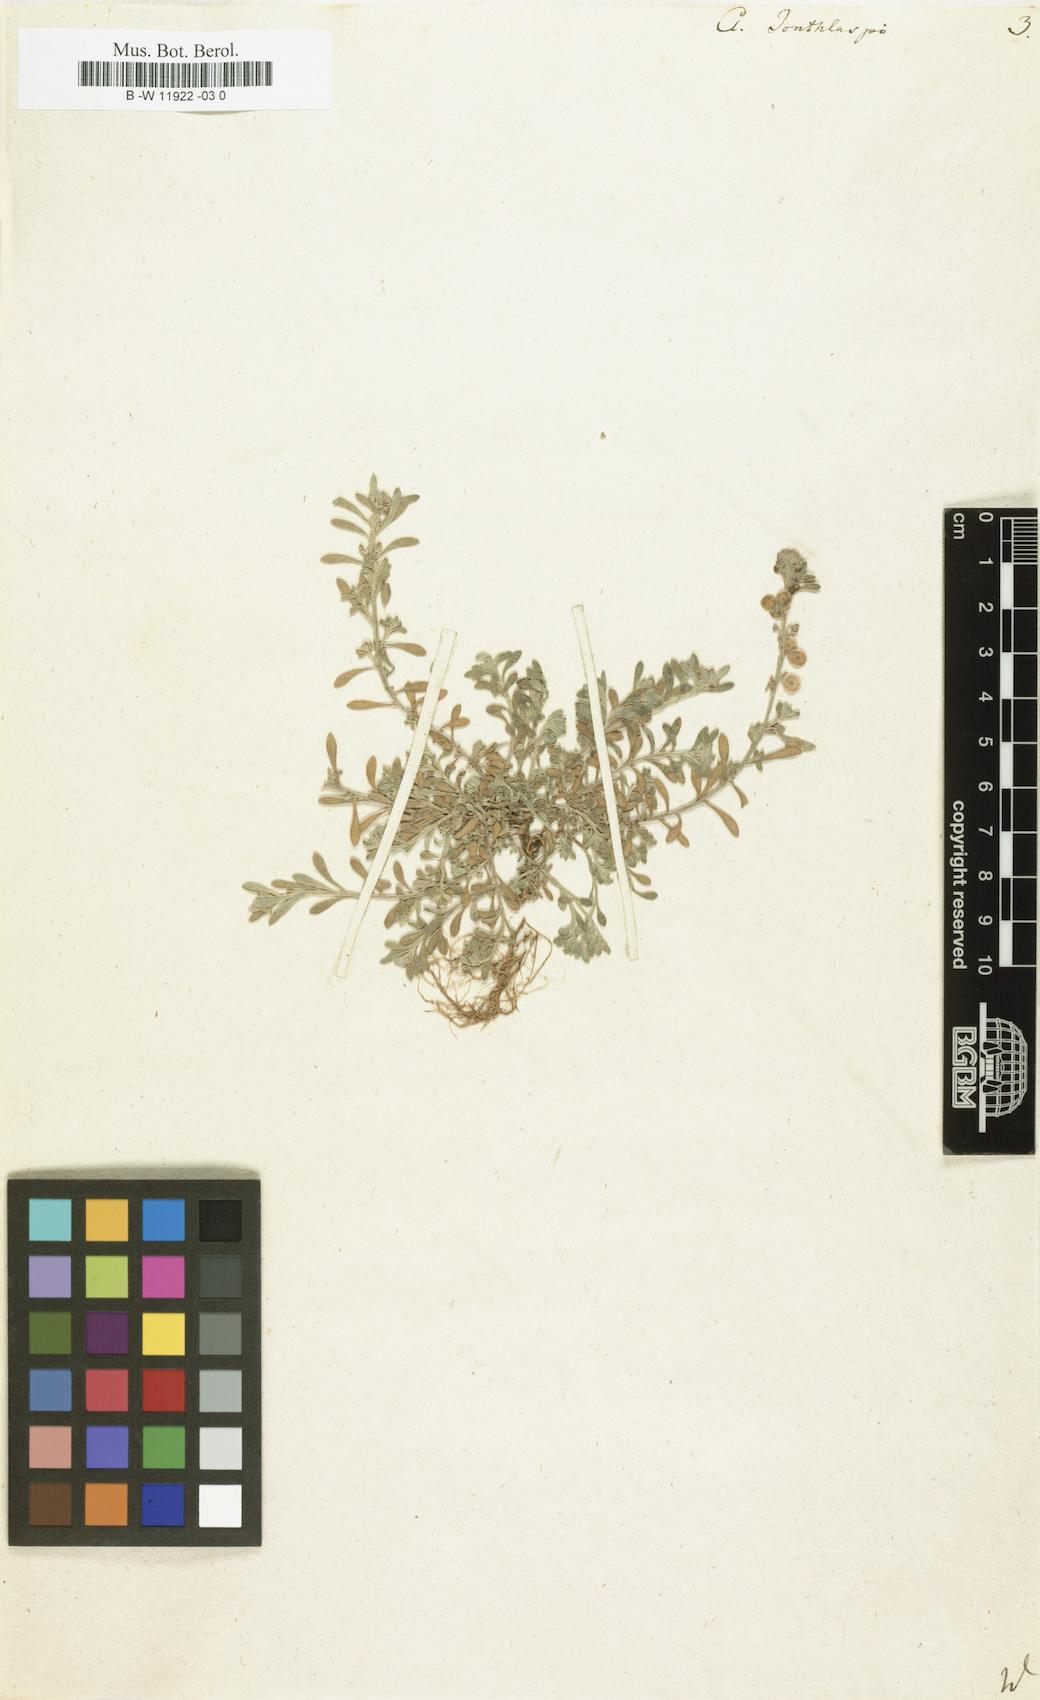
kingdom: Plantae
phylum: Tracheophyta
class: Magnoliopsida
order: Brassicales
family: Brassicaceae
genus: Clypeola
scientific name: Clypeola jonthlaspi
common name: Disk cress
